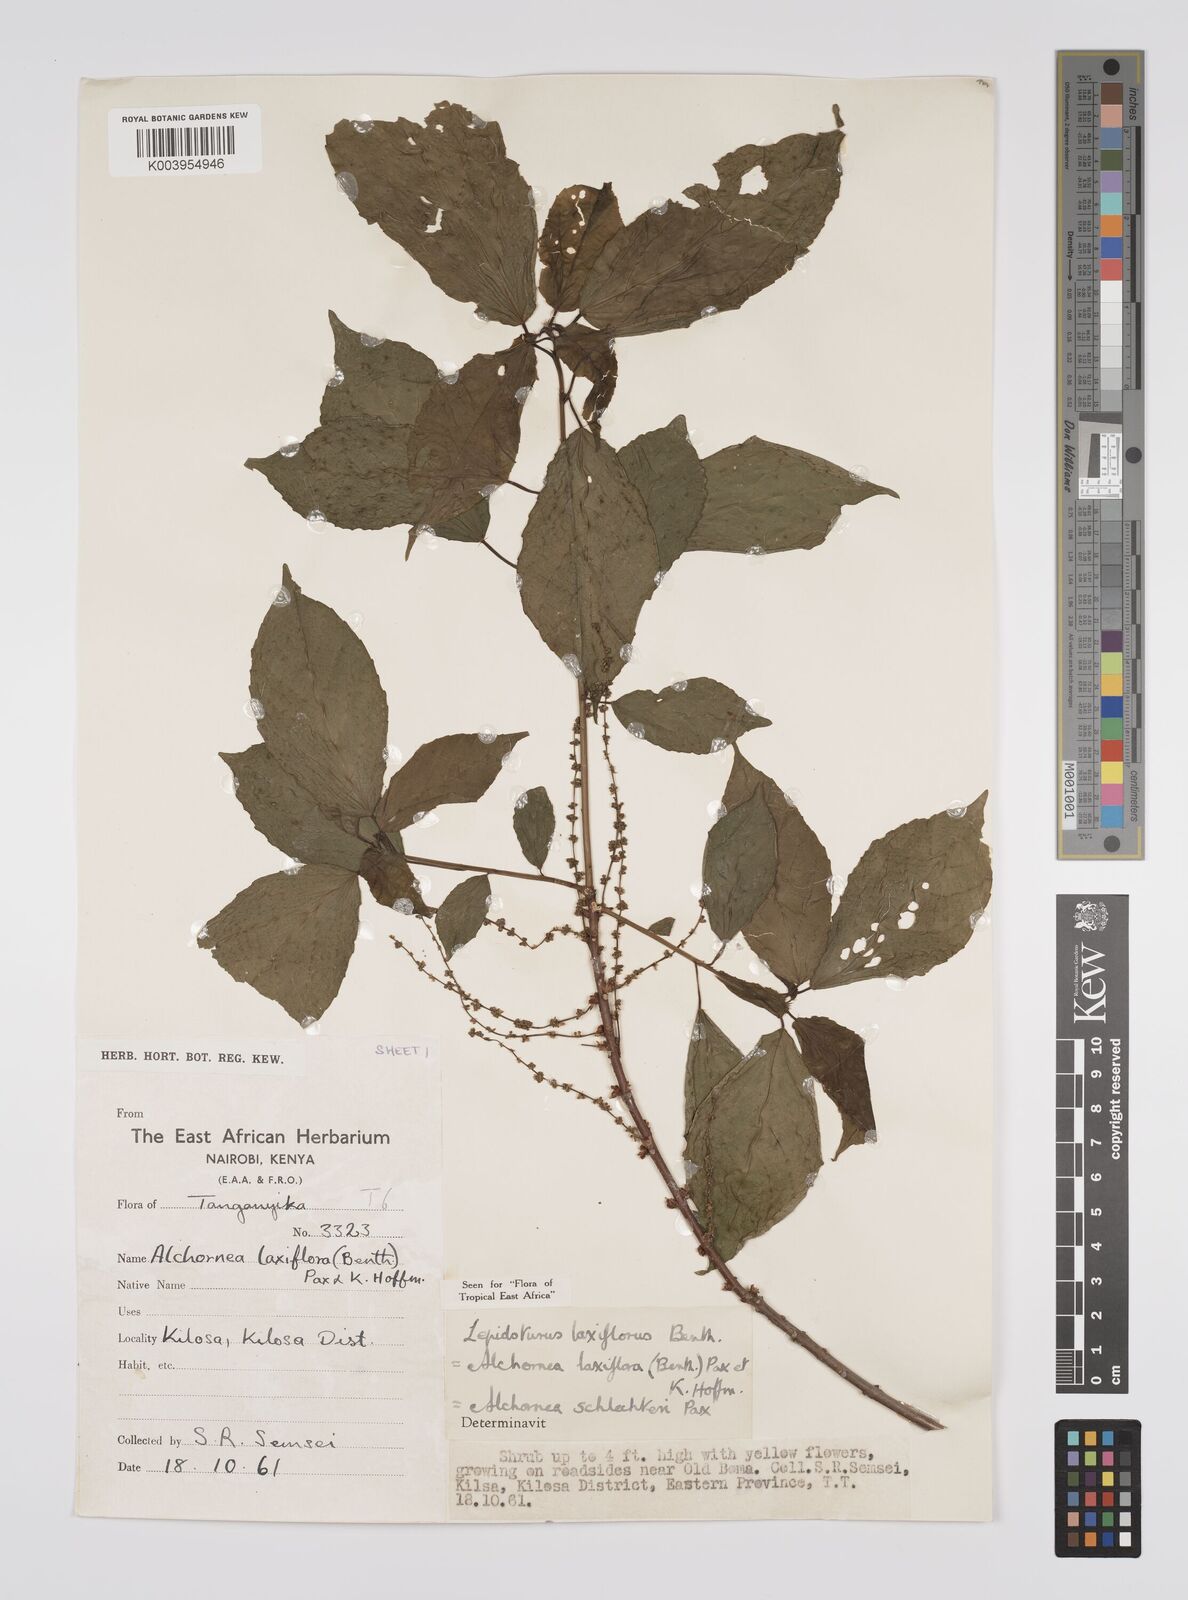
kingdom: Plantae
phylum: Tracheophyta
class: Magnoliopsida
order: Malpighiales
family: Euphorbiaceae
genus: Alchornea
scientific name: Alchornea laxiflora
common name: Lowveld bead-string
